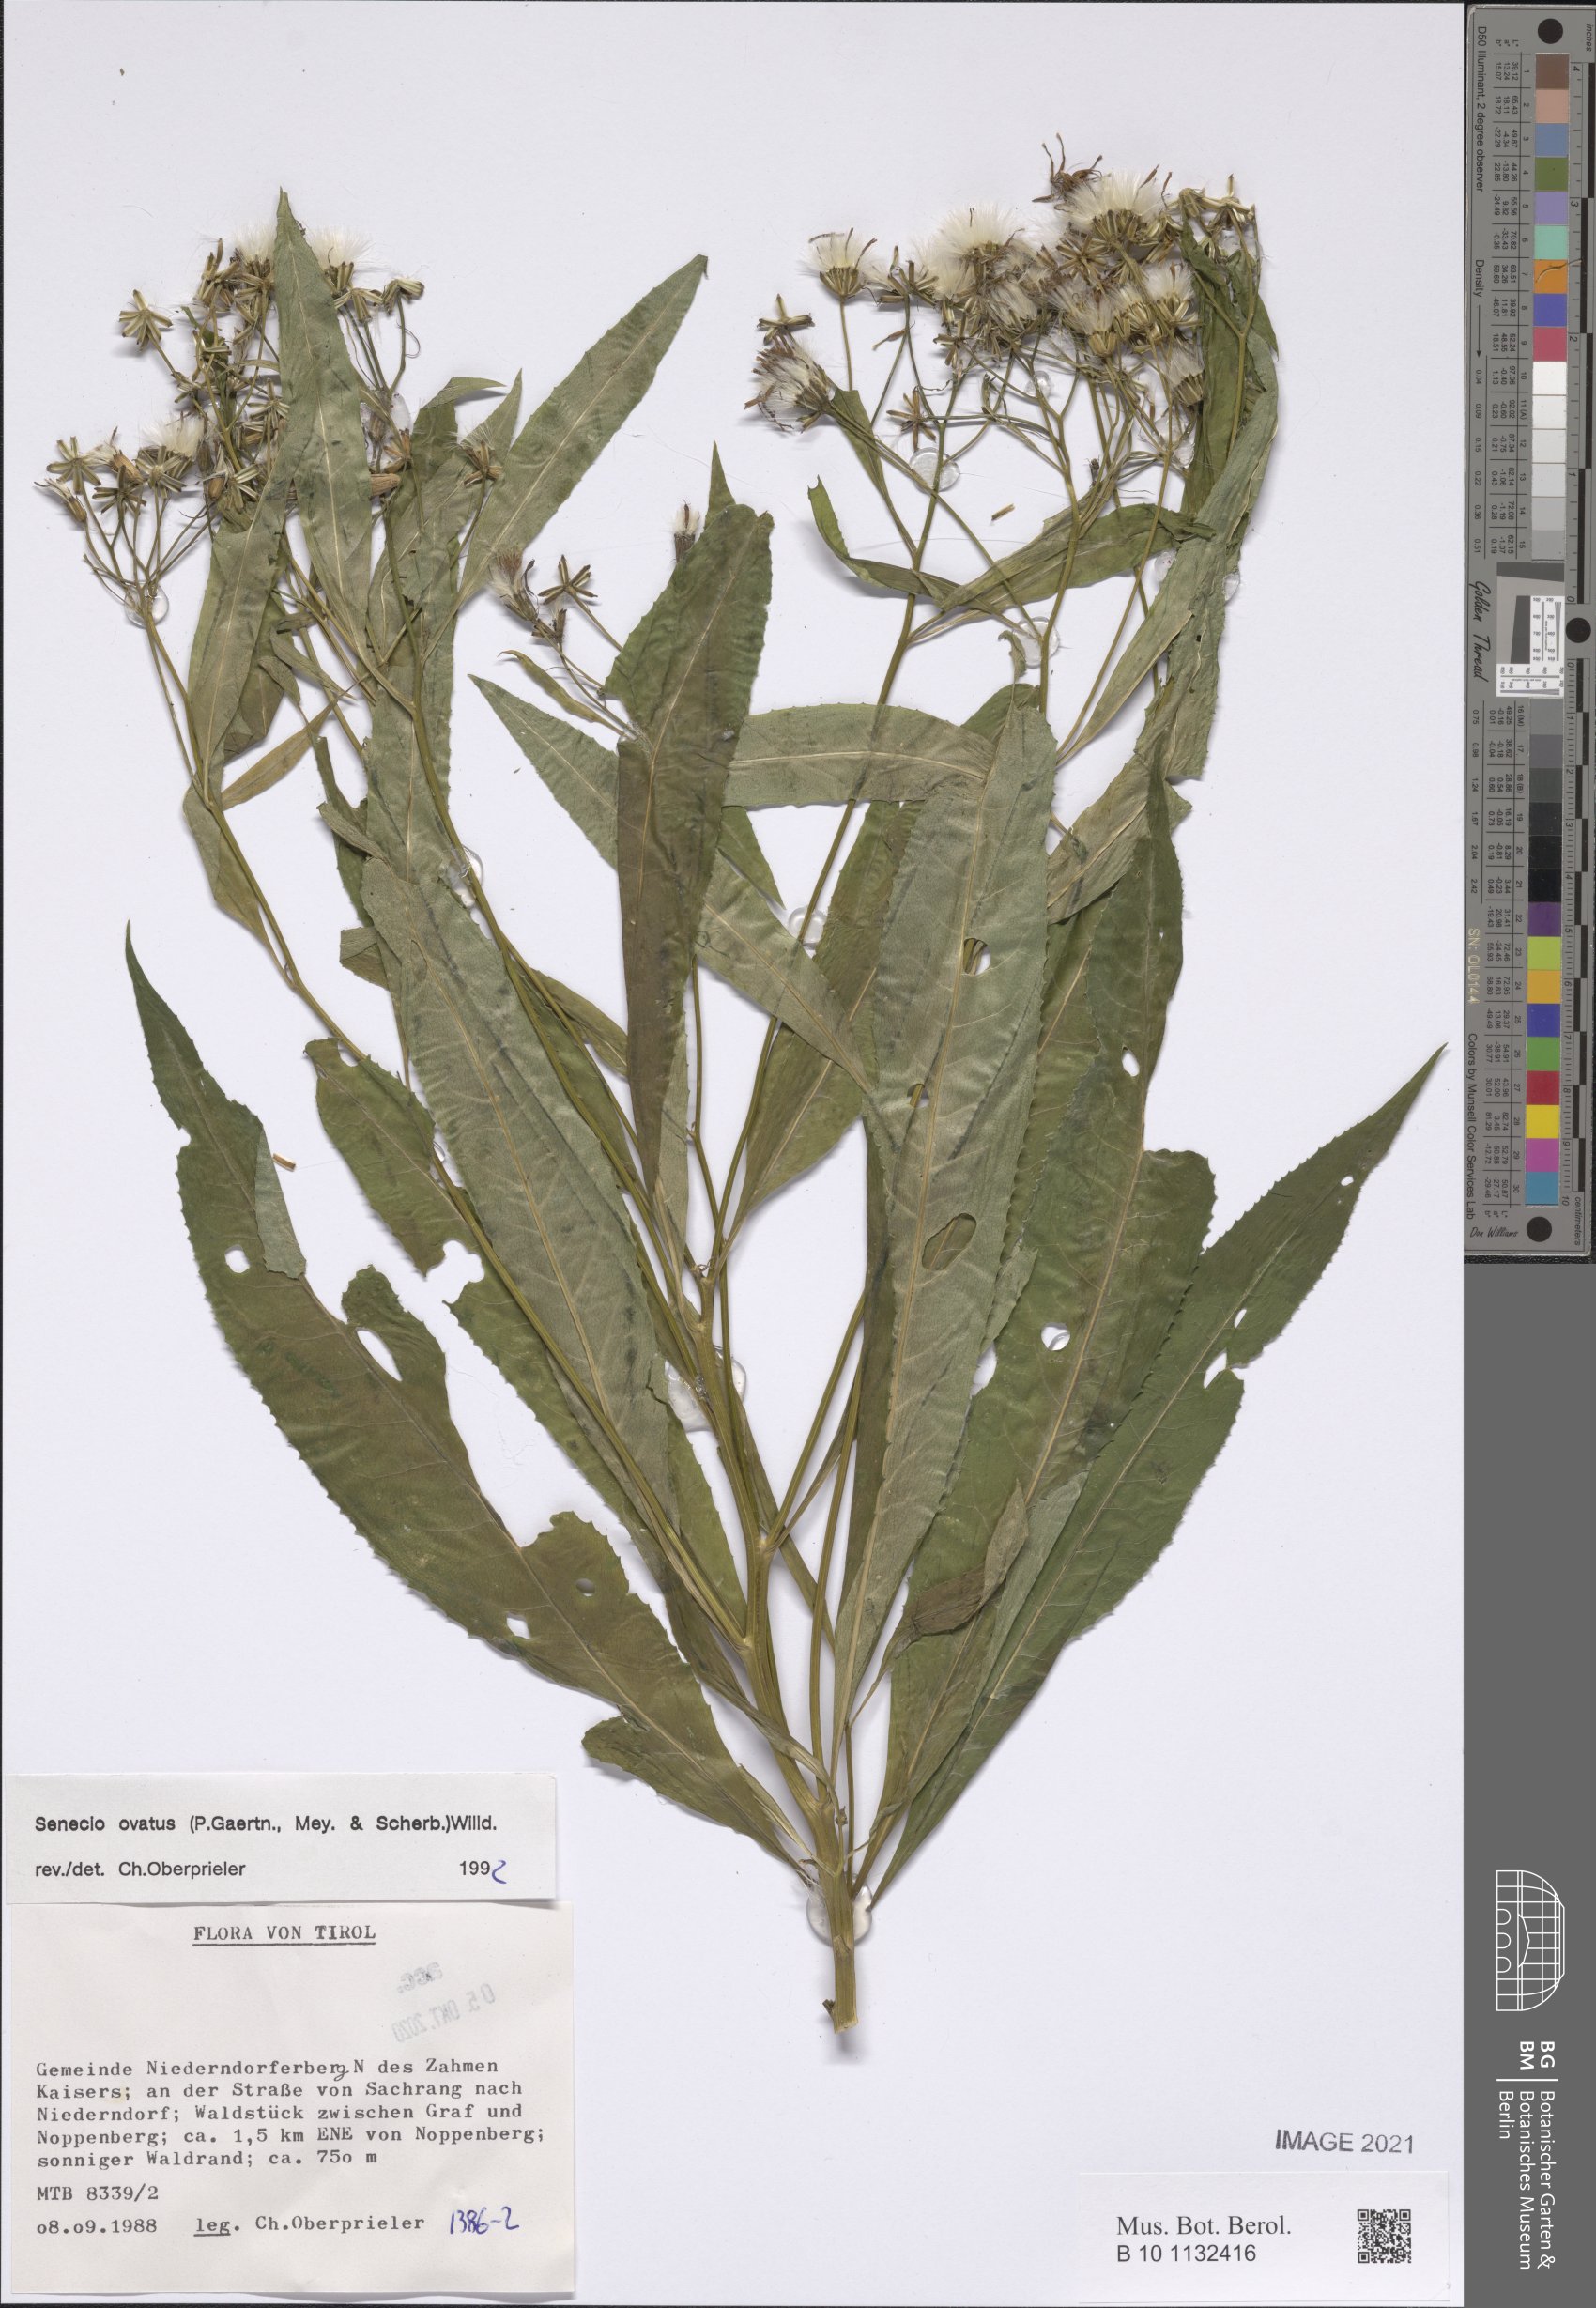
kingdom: Plantae
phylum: Tracheophyta
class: Magnoliopsida
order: Asterales
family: Asteraceae
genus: Senecio
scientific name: Senecio ovatus
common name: Wood ragwort
